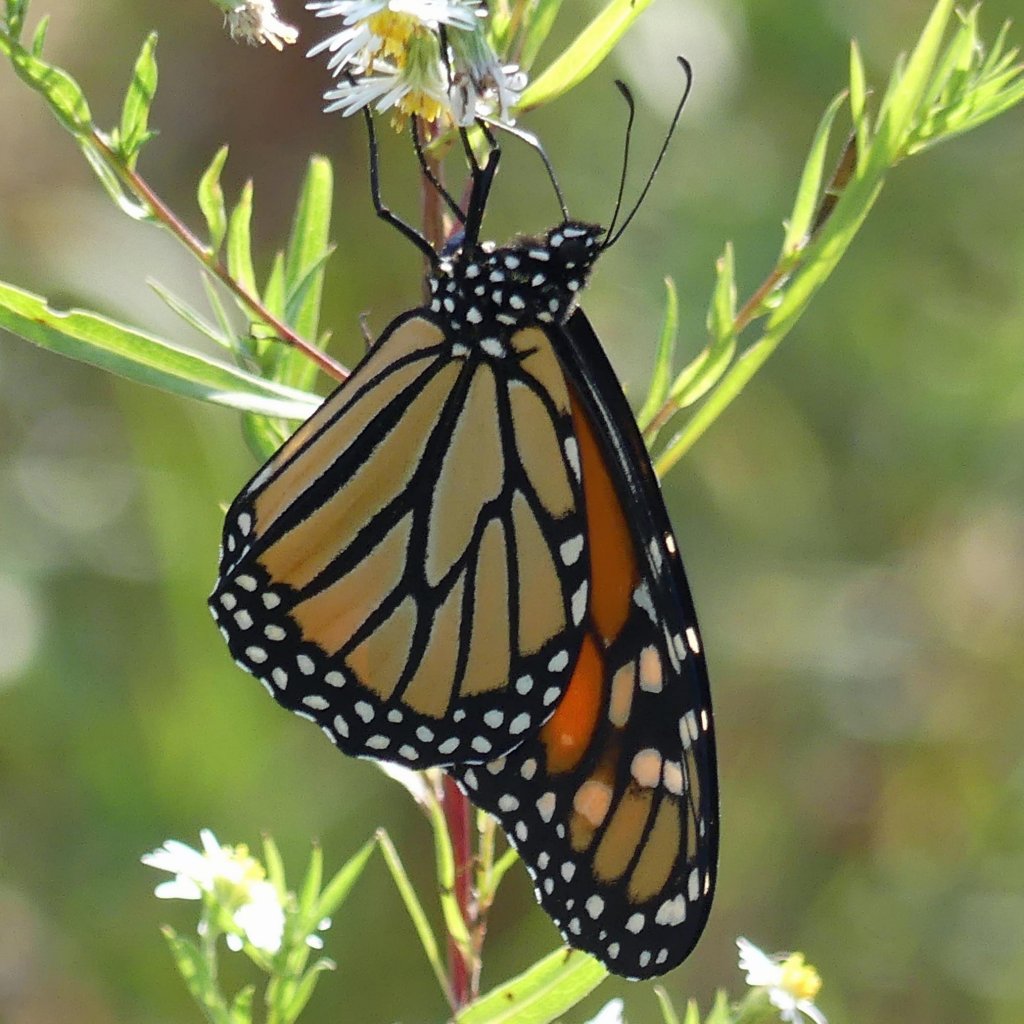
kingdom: Animalia
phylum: Arthropoda
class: Insecta
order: Lepidoptera
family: Nymphalidae
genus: Danaus
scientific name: Danaus plexippus
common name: Monarch
